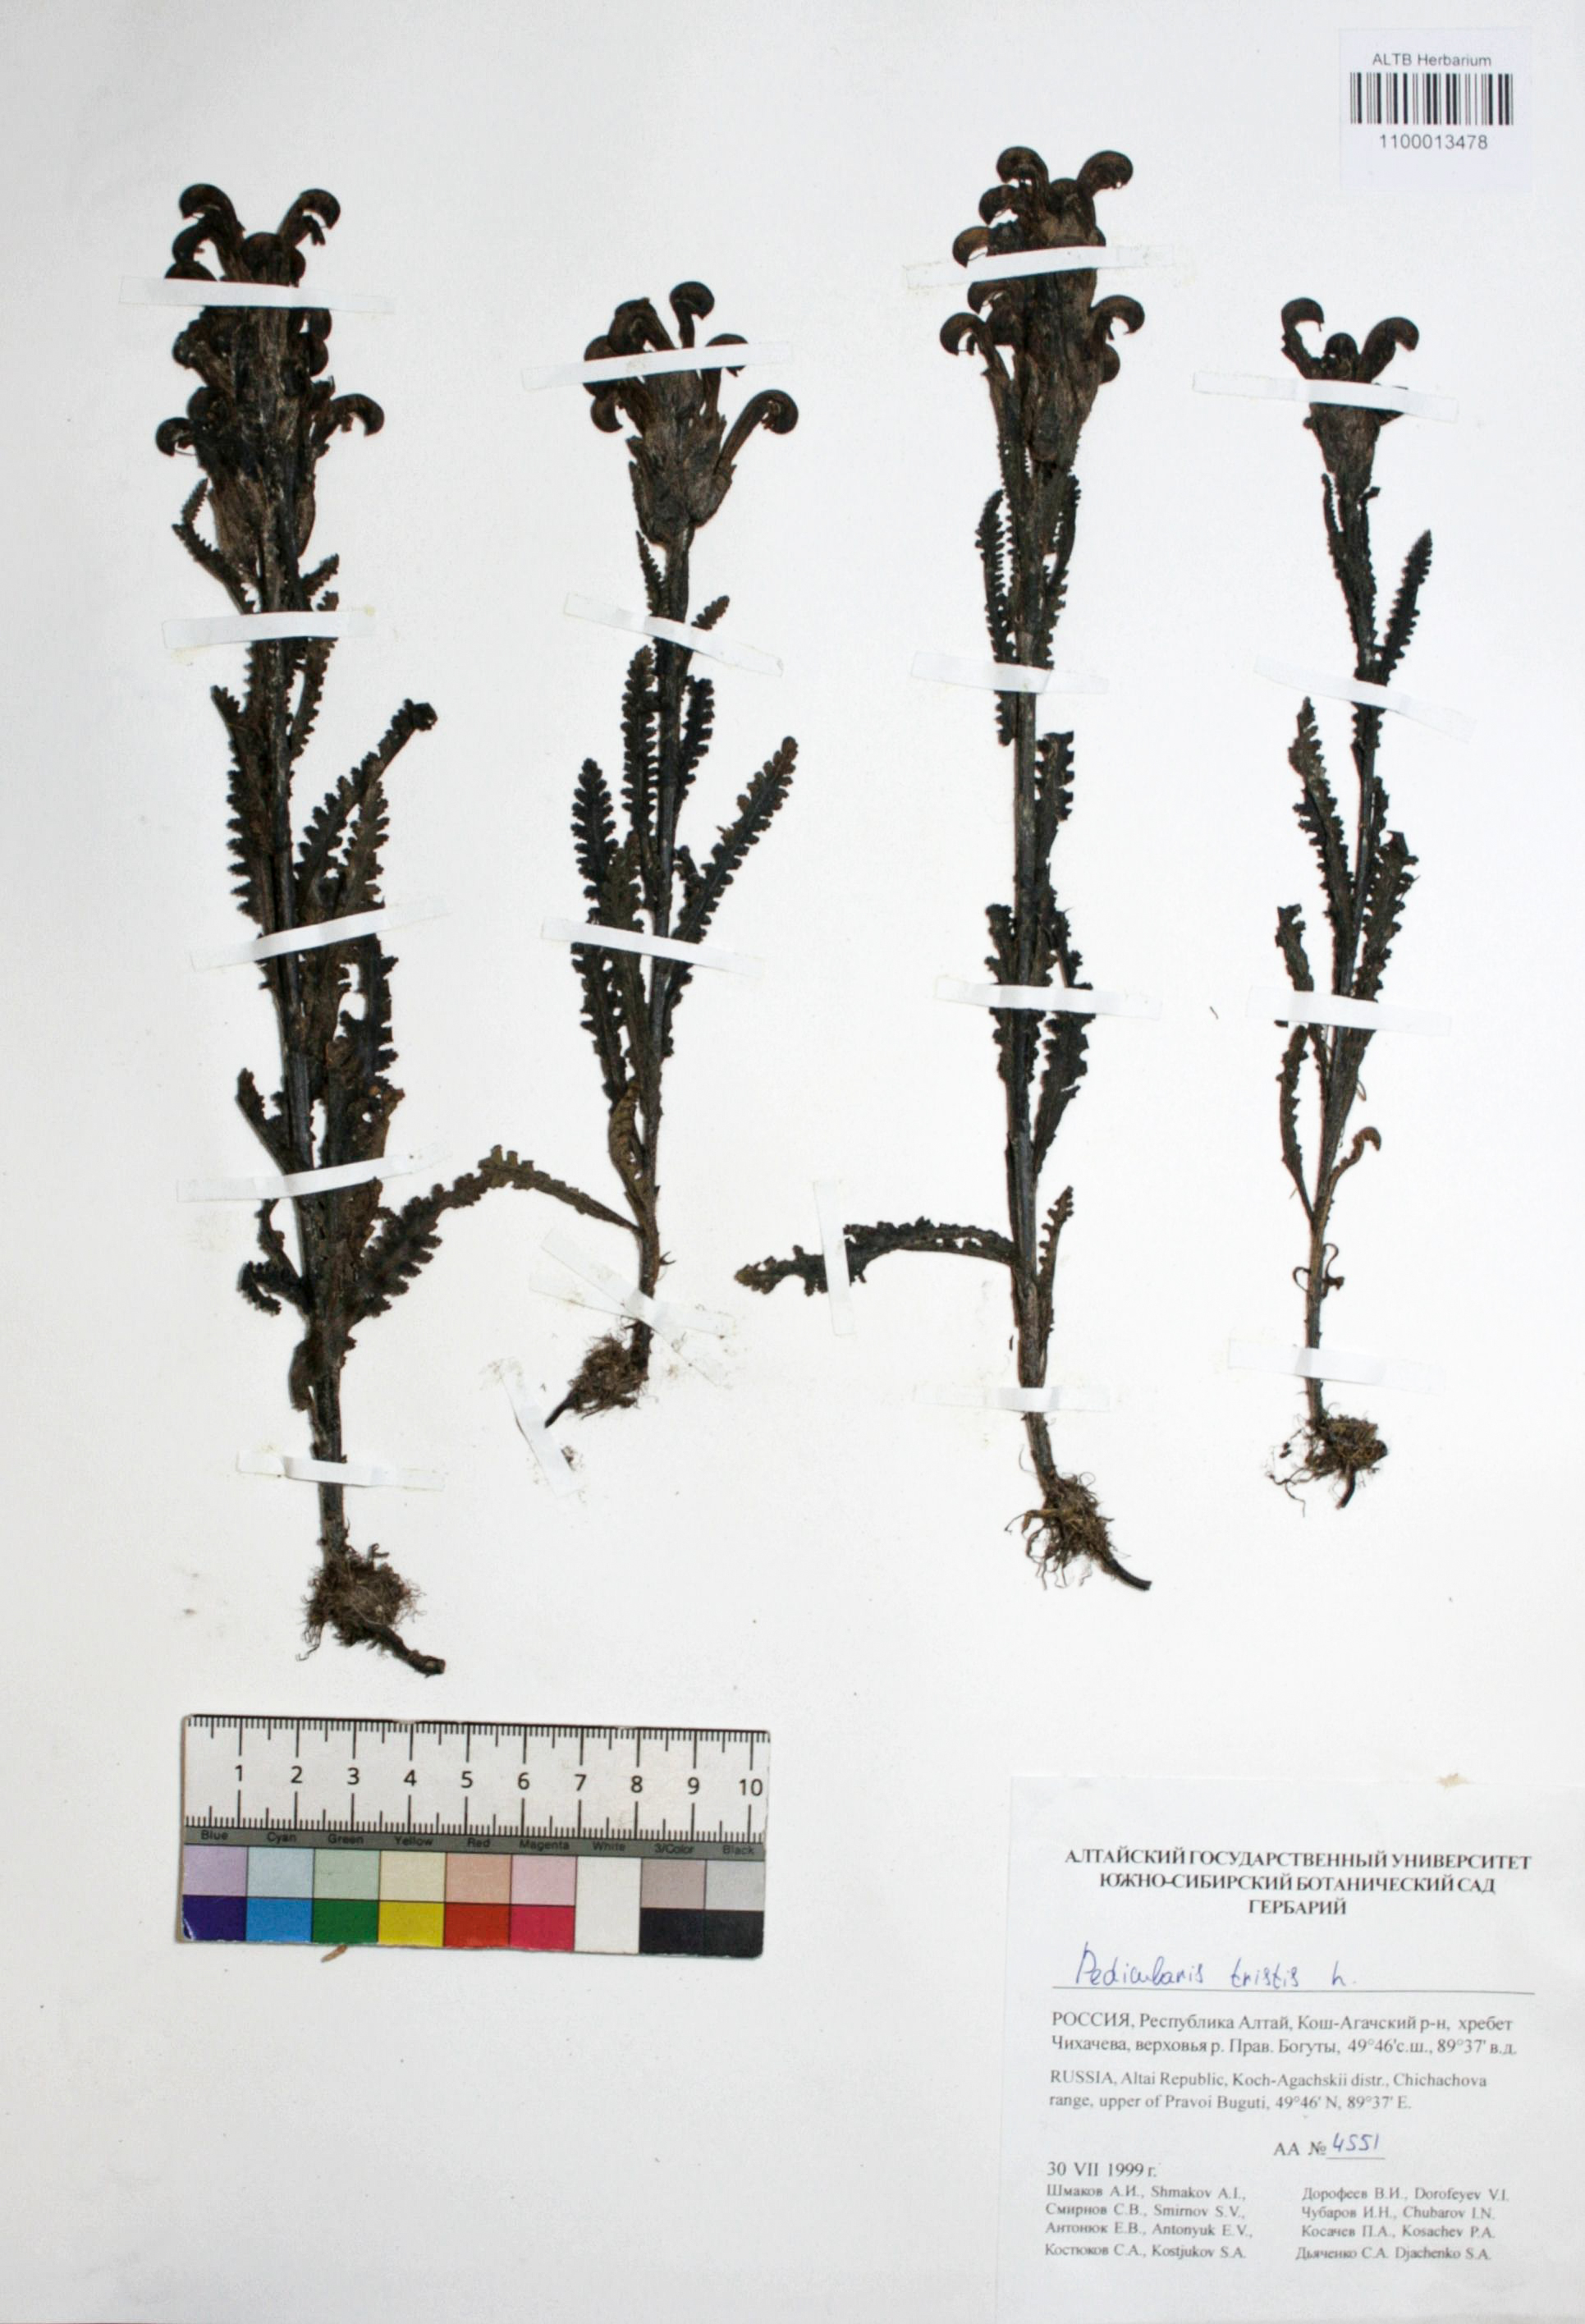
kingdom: Plantae
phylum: Tracheophyta
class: Magnoliopsida
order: Lamiales
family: Orobanchaceae
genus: Pedicularis
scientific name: Pedicularis tristis
